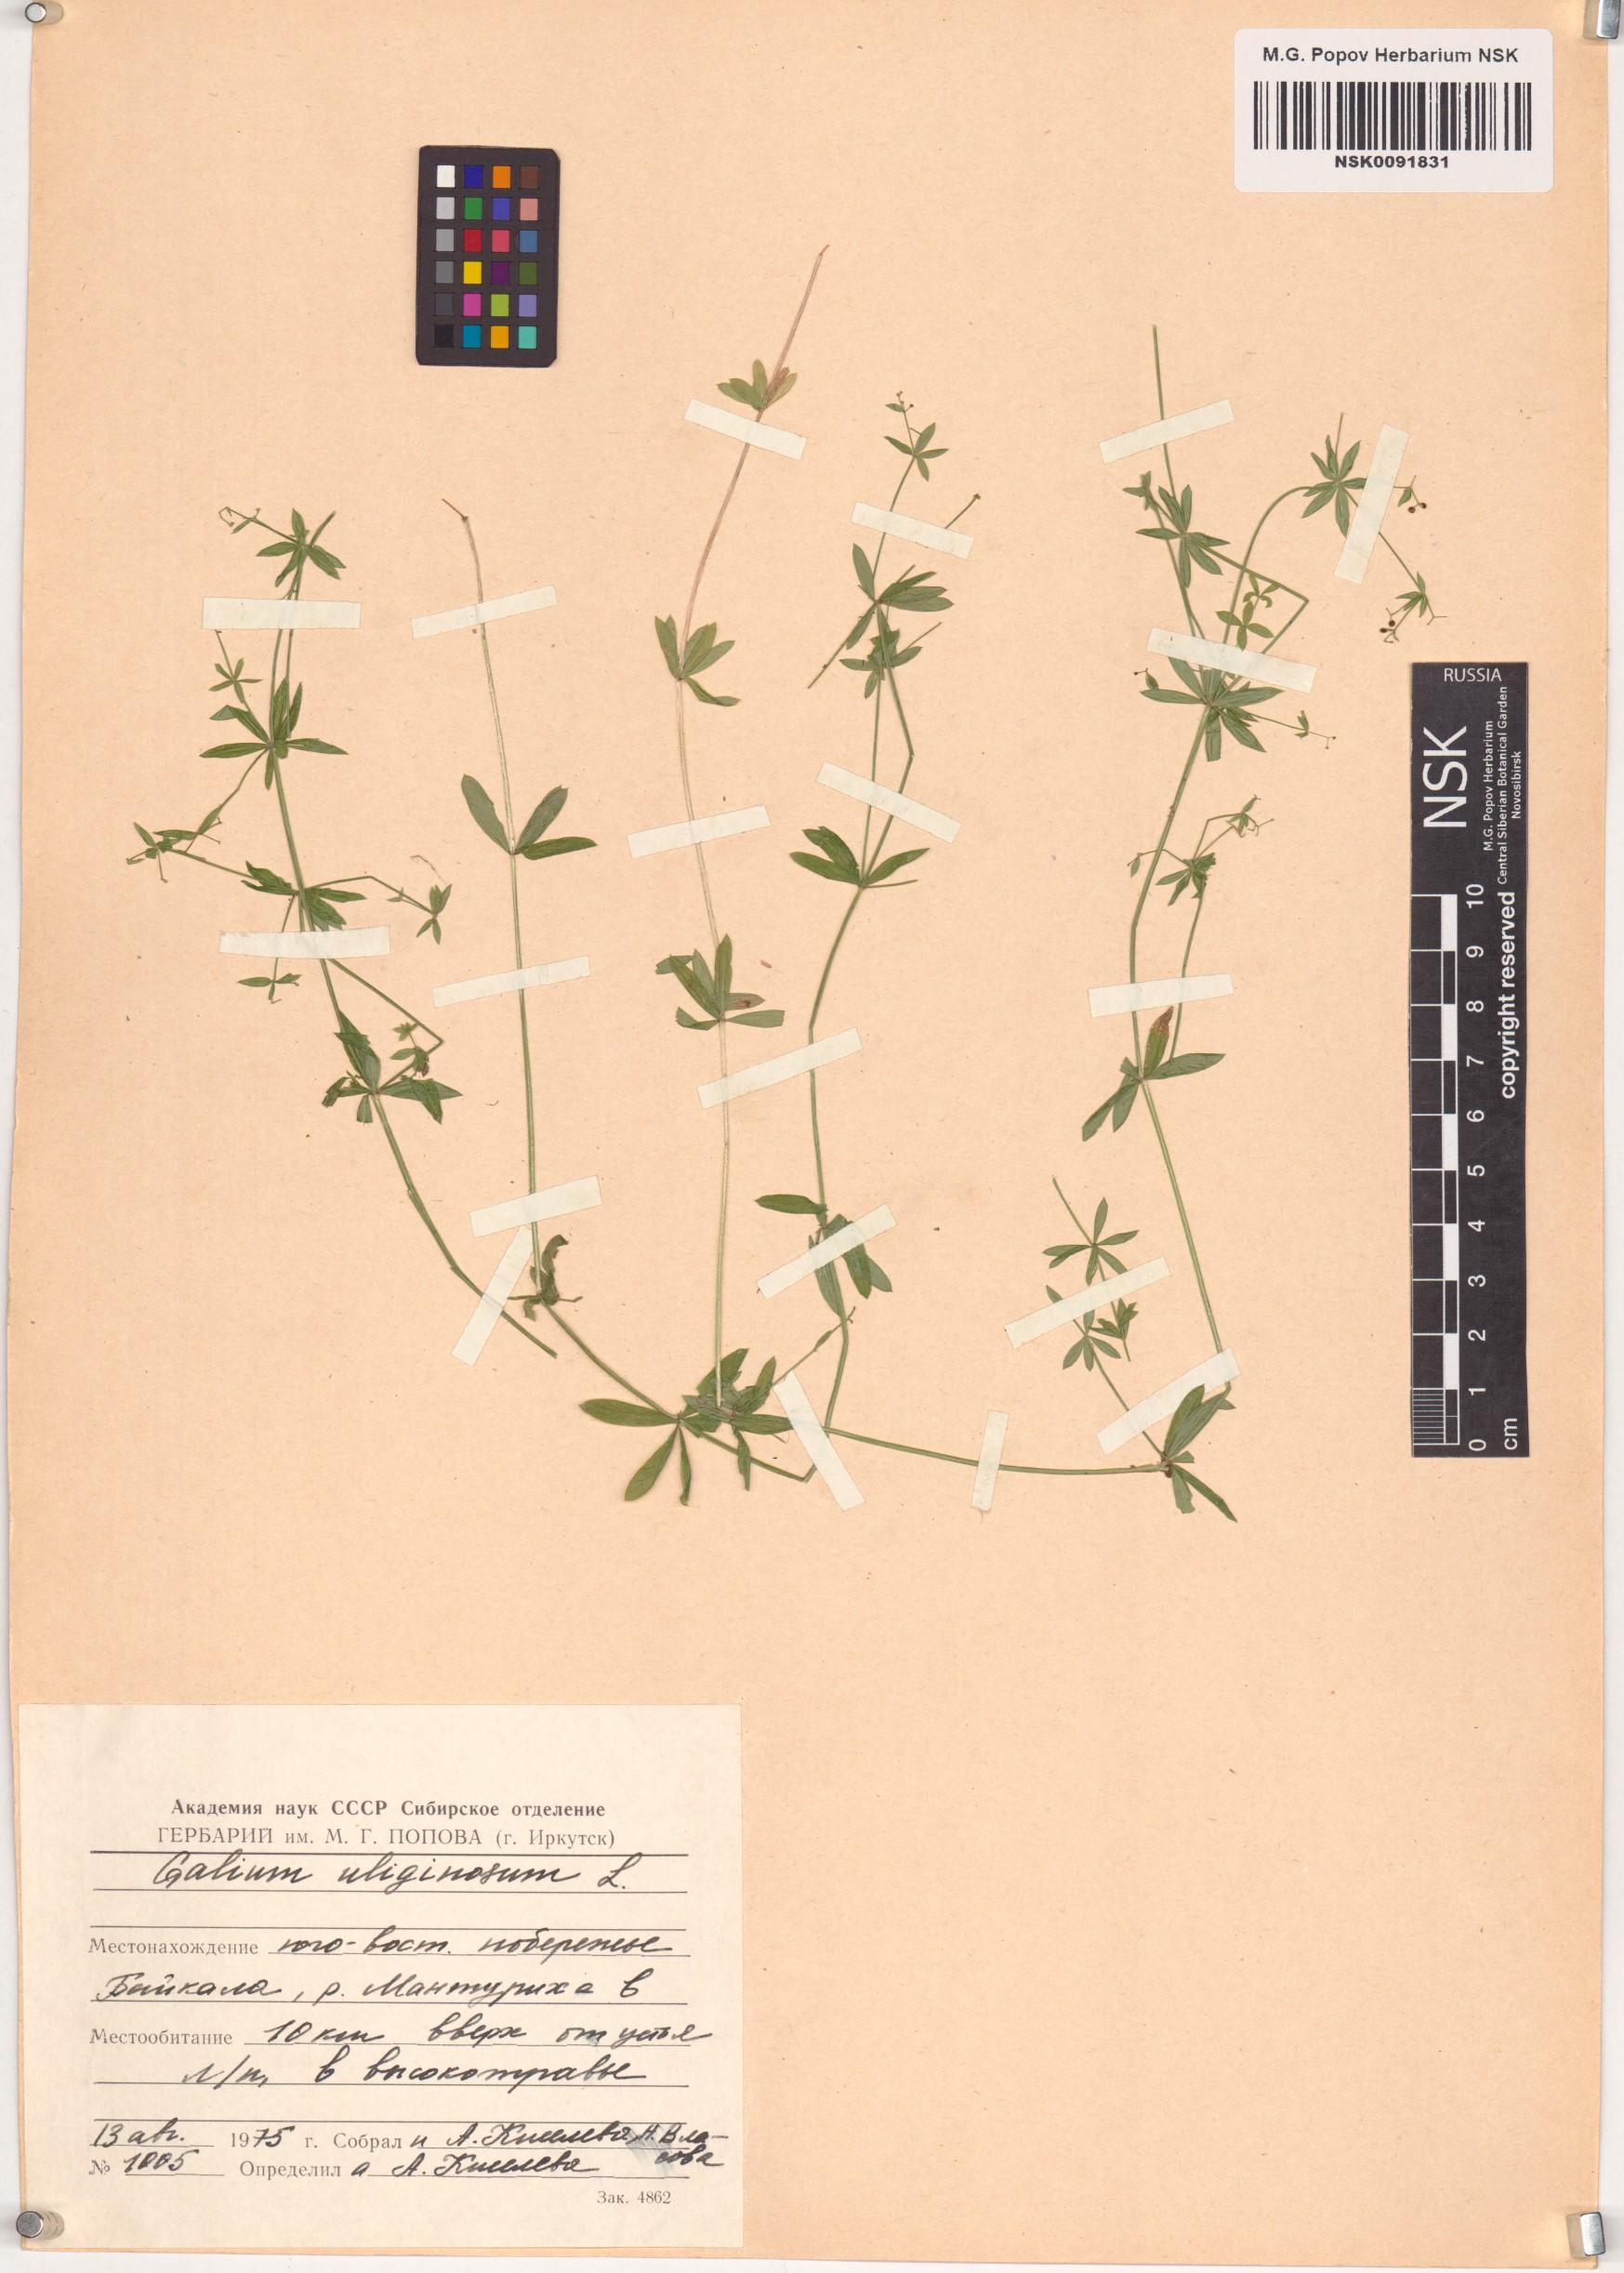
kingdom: Plantae
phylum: Tracheophyta
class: Magnoliopsida
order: Gentianales
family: Rubiaceae
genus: Galium
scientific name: Galium uliginosum
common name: Fen bedstraw
